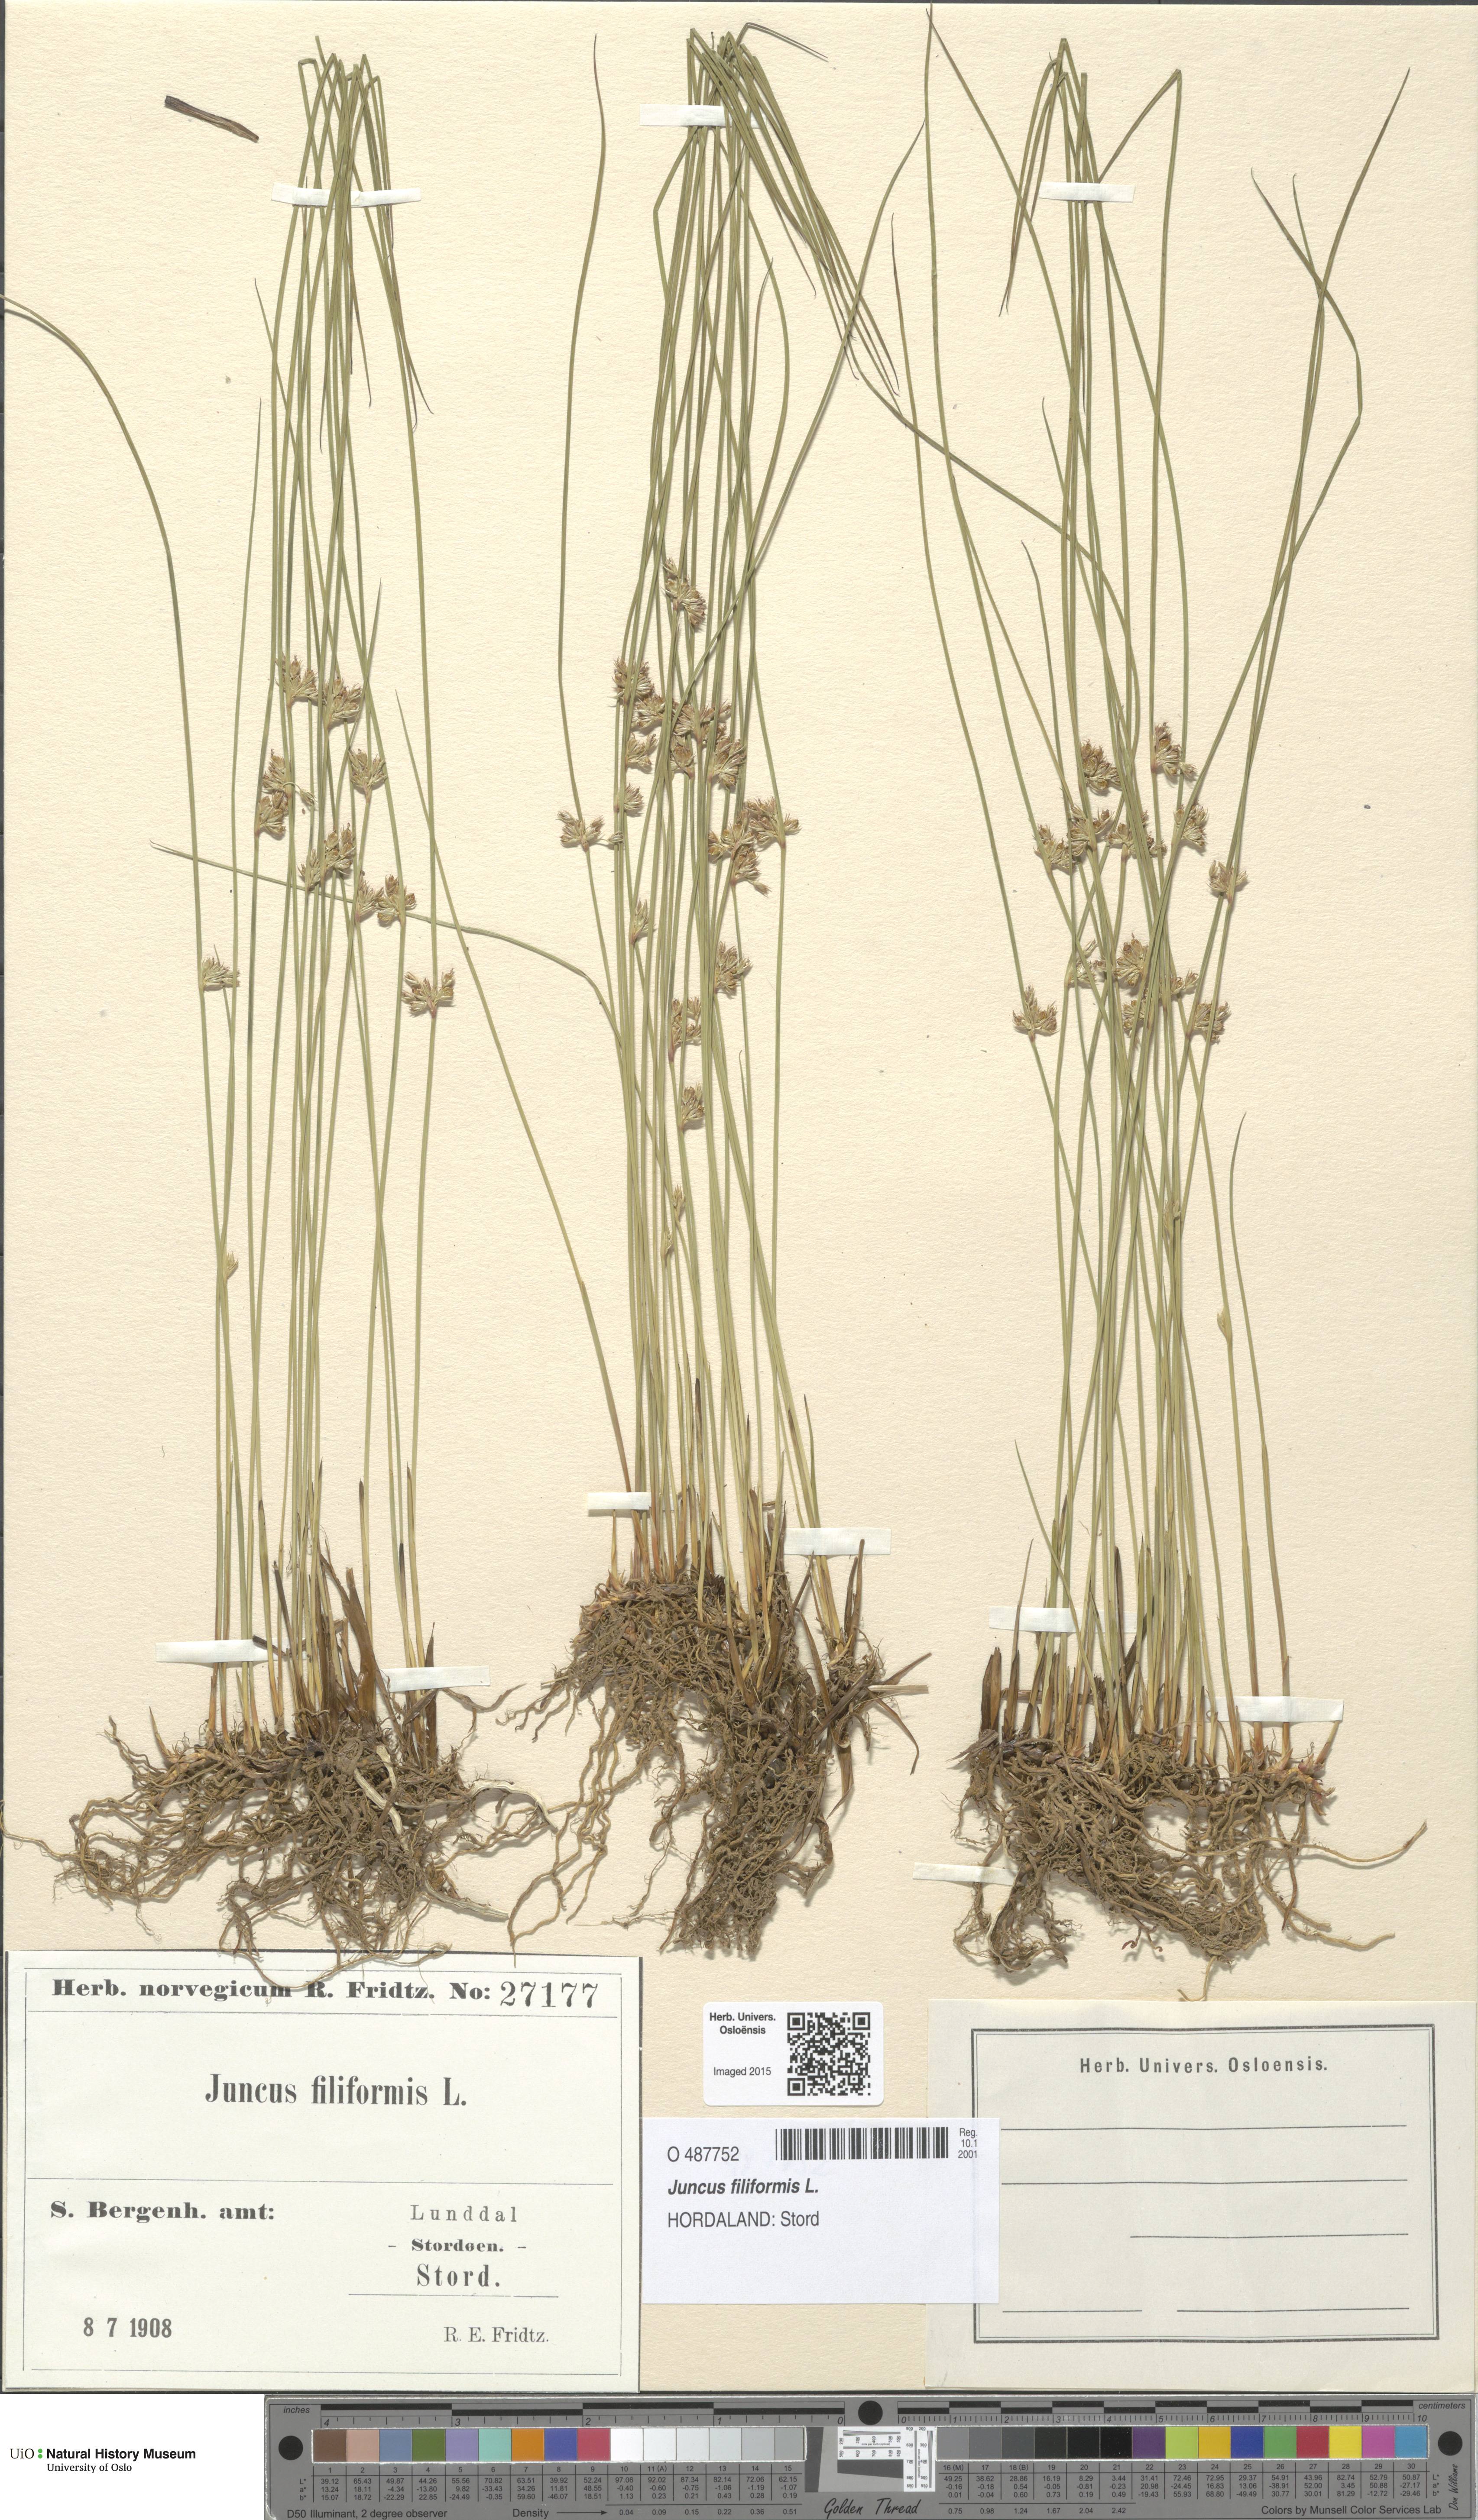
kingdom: Plantae
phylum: Tracheophyta
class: Liliopsida
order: Poales
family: Juncaceae
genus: Juncus
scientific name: Juncus filiformis
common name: Thread rush
